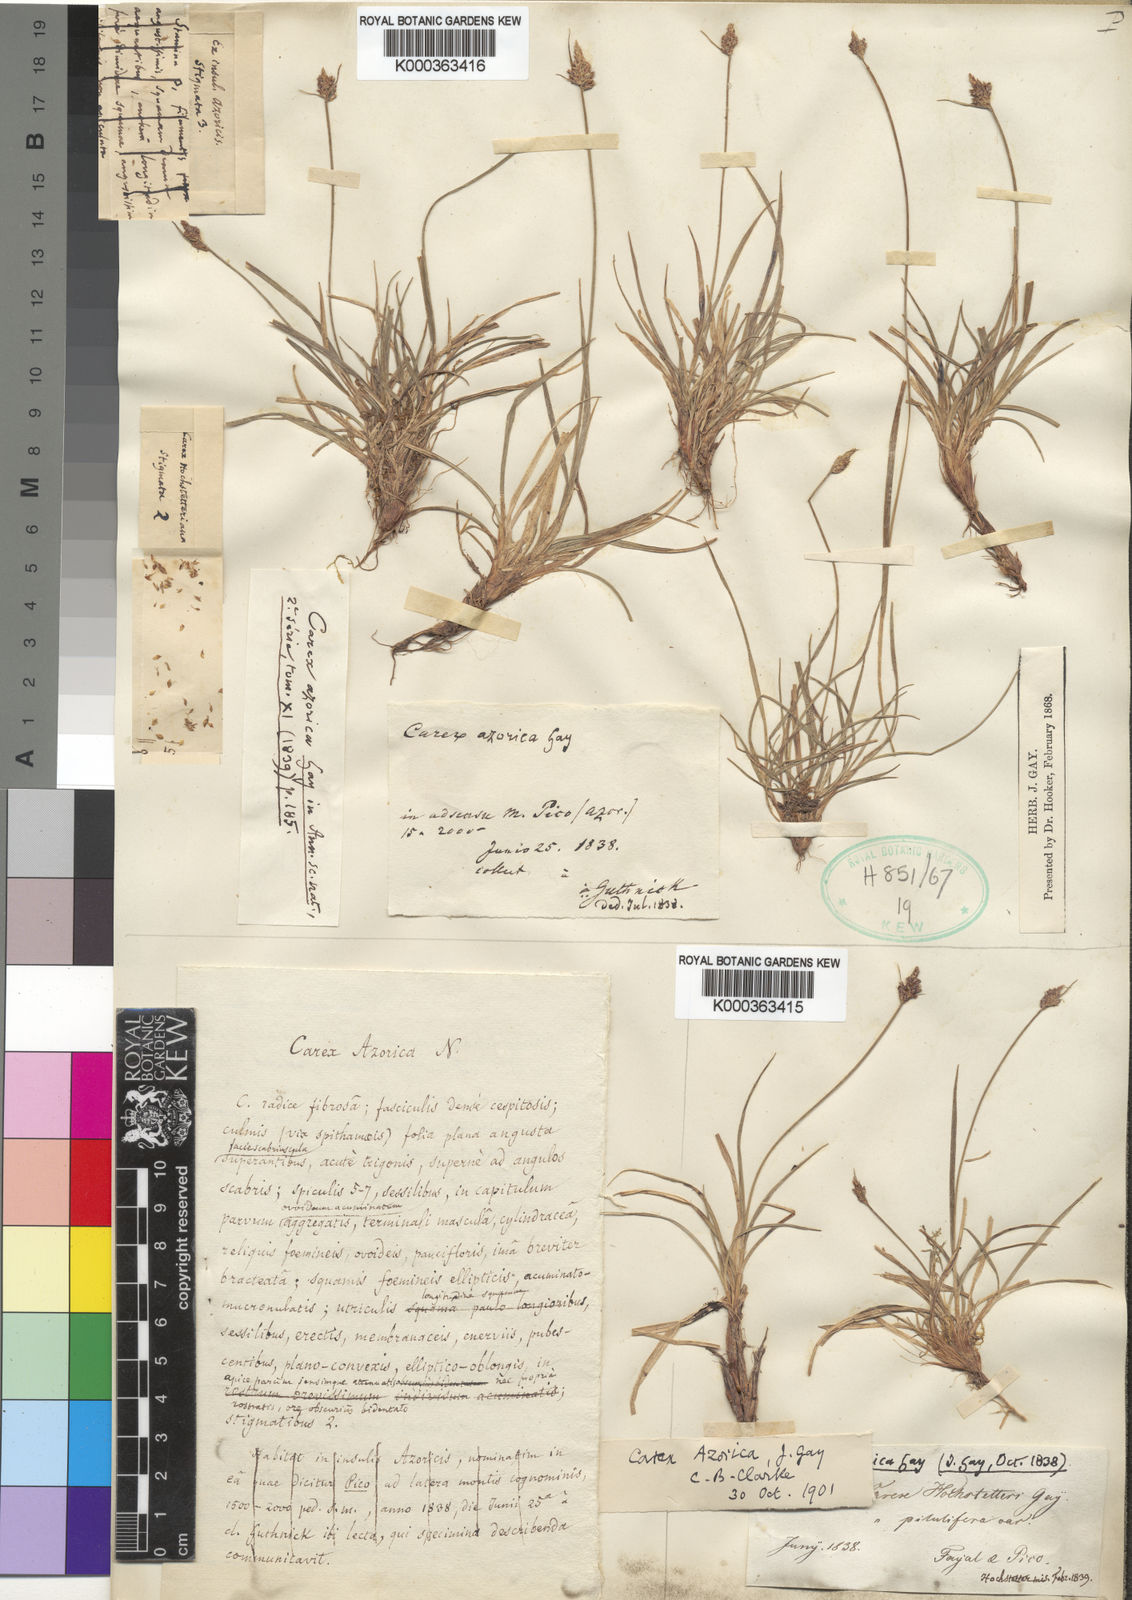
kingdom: Plantae
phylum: Tracheophyta
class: Liliopsida
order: Poales
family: Cyperaceae
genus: Carex
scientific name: Carex pilulifera
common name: Pill sedge
